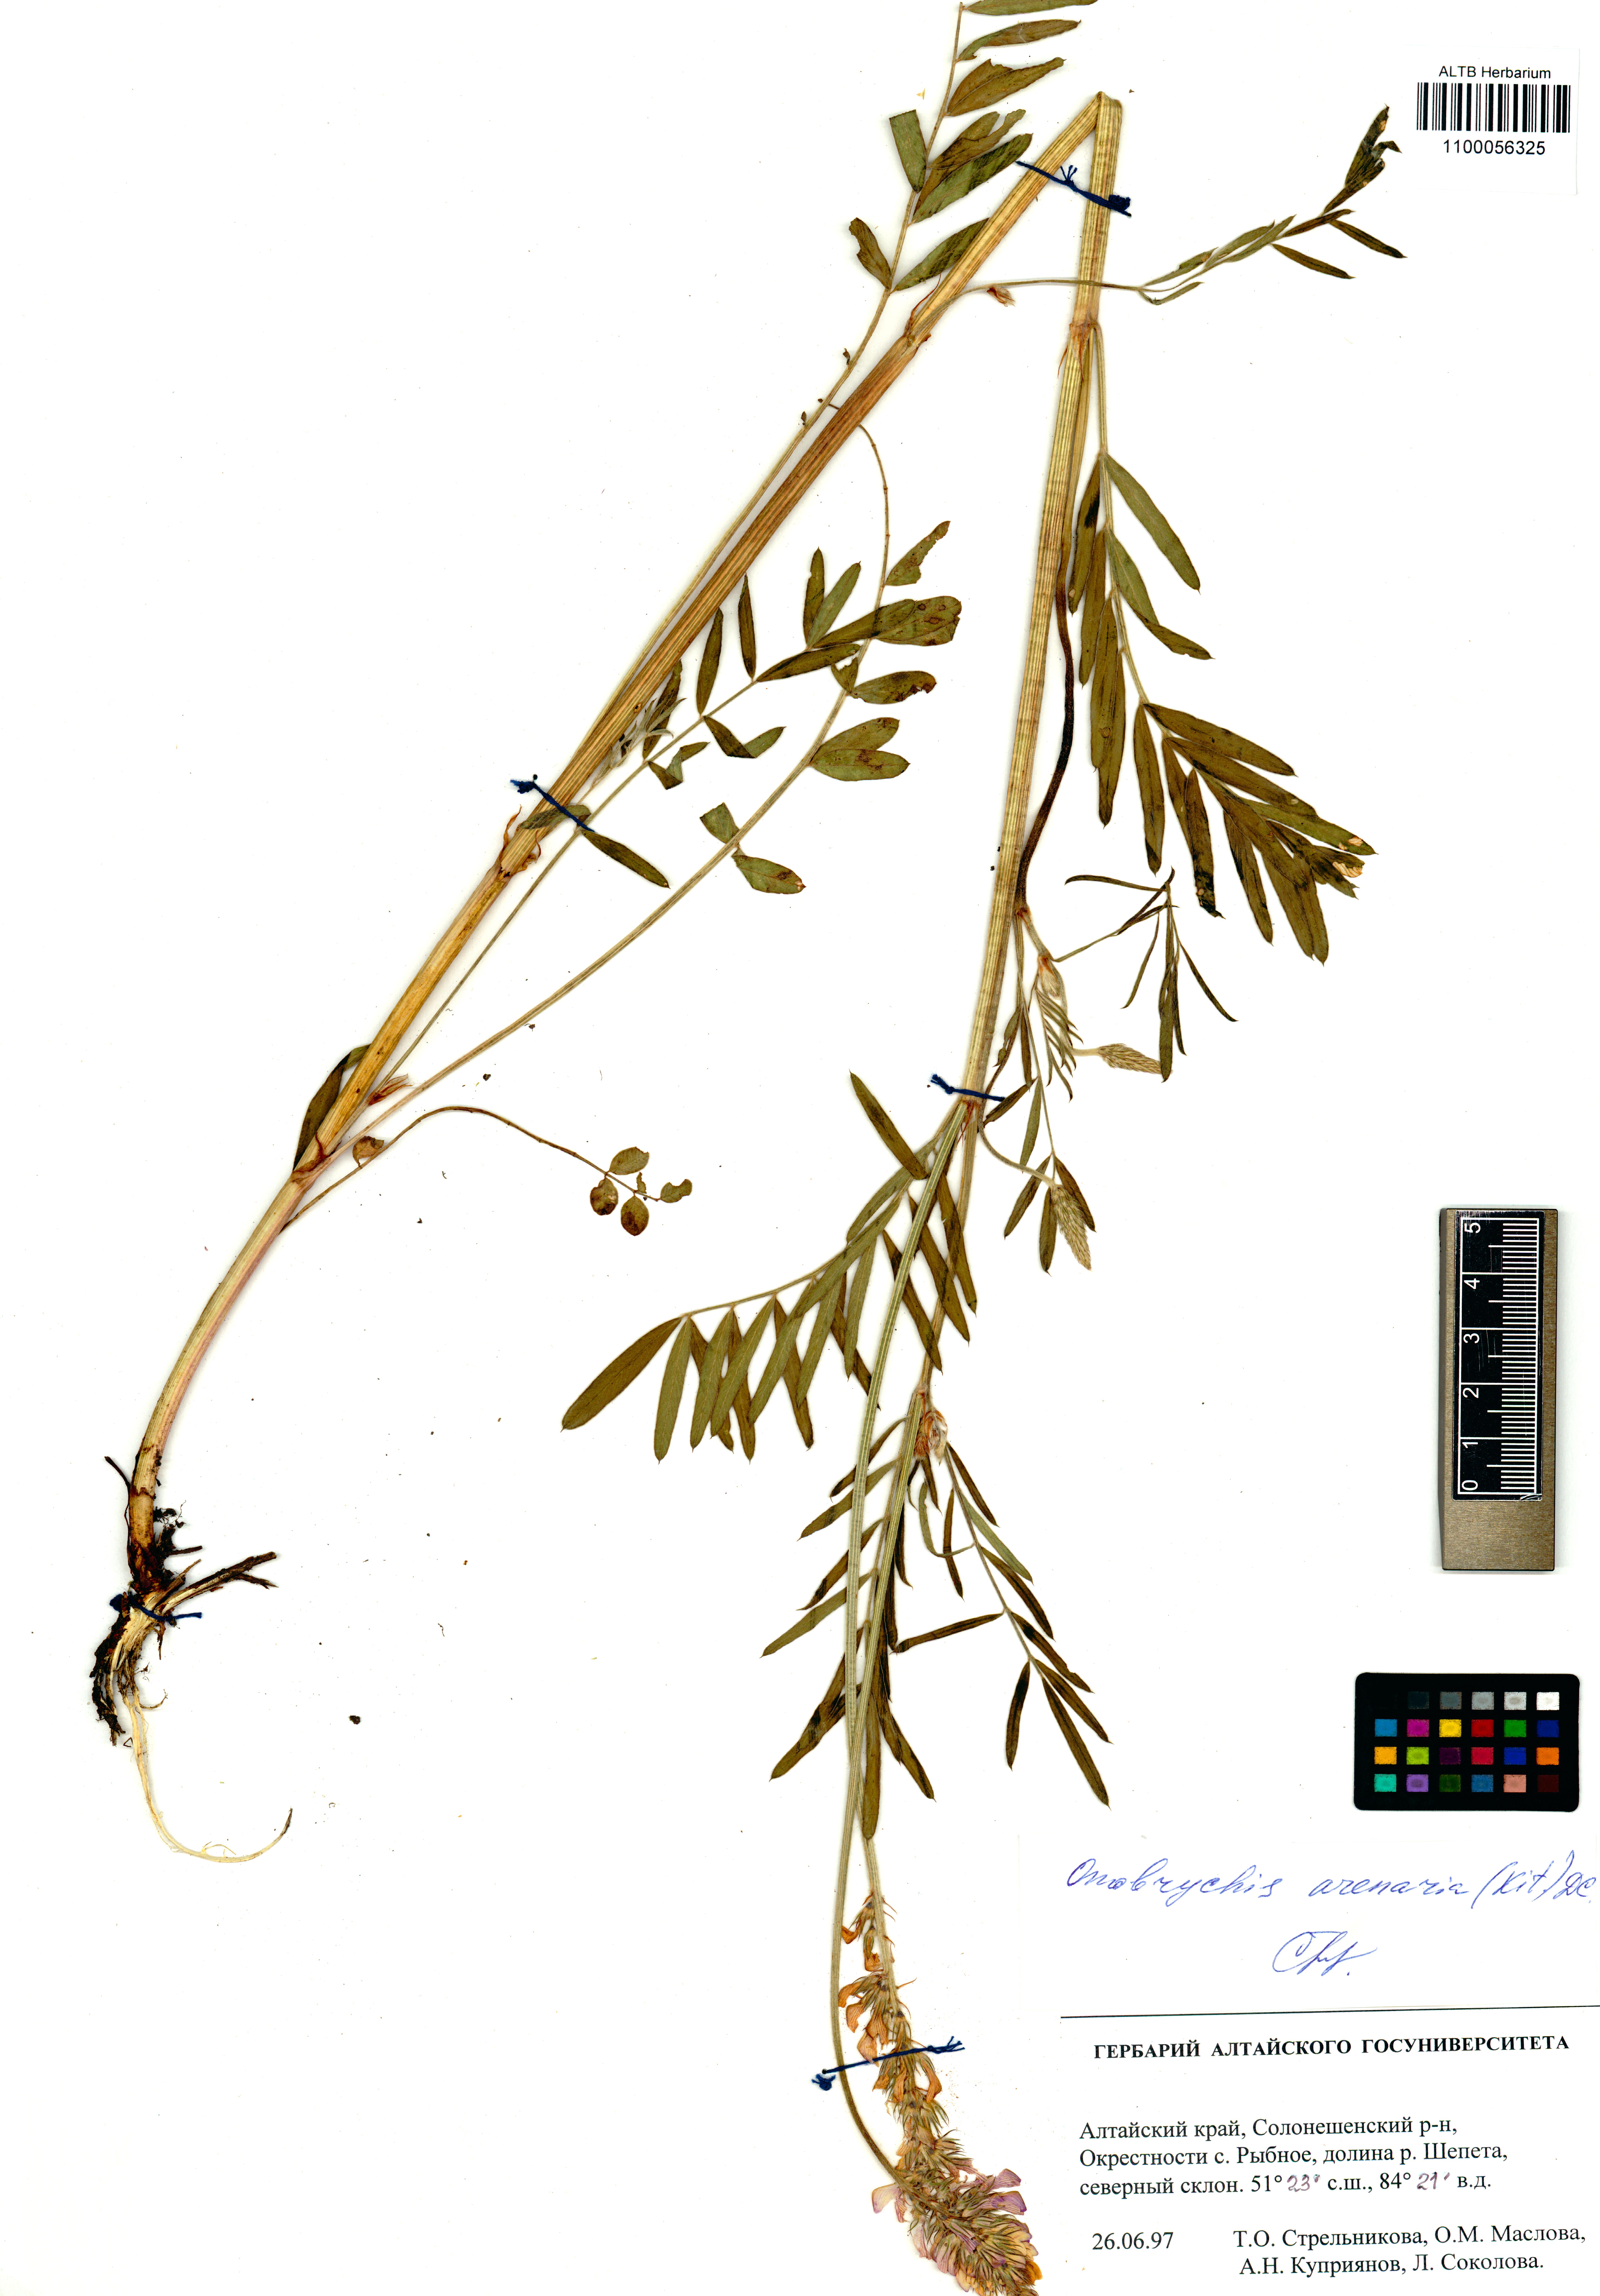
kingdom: Plantae
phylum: Tracheophyta
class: Magnoliopsida
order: Fabales
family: Fabaceae
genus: Onobrychis
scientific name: Onobrychis arenaria
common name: Sand esparcet
